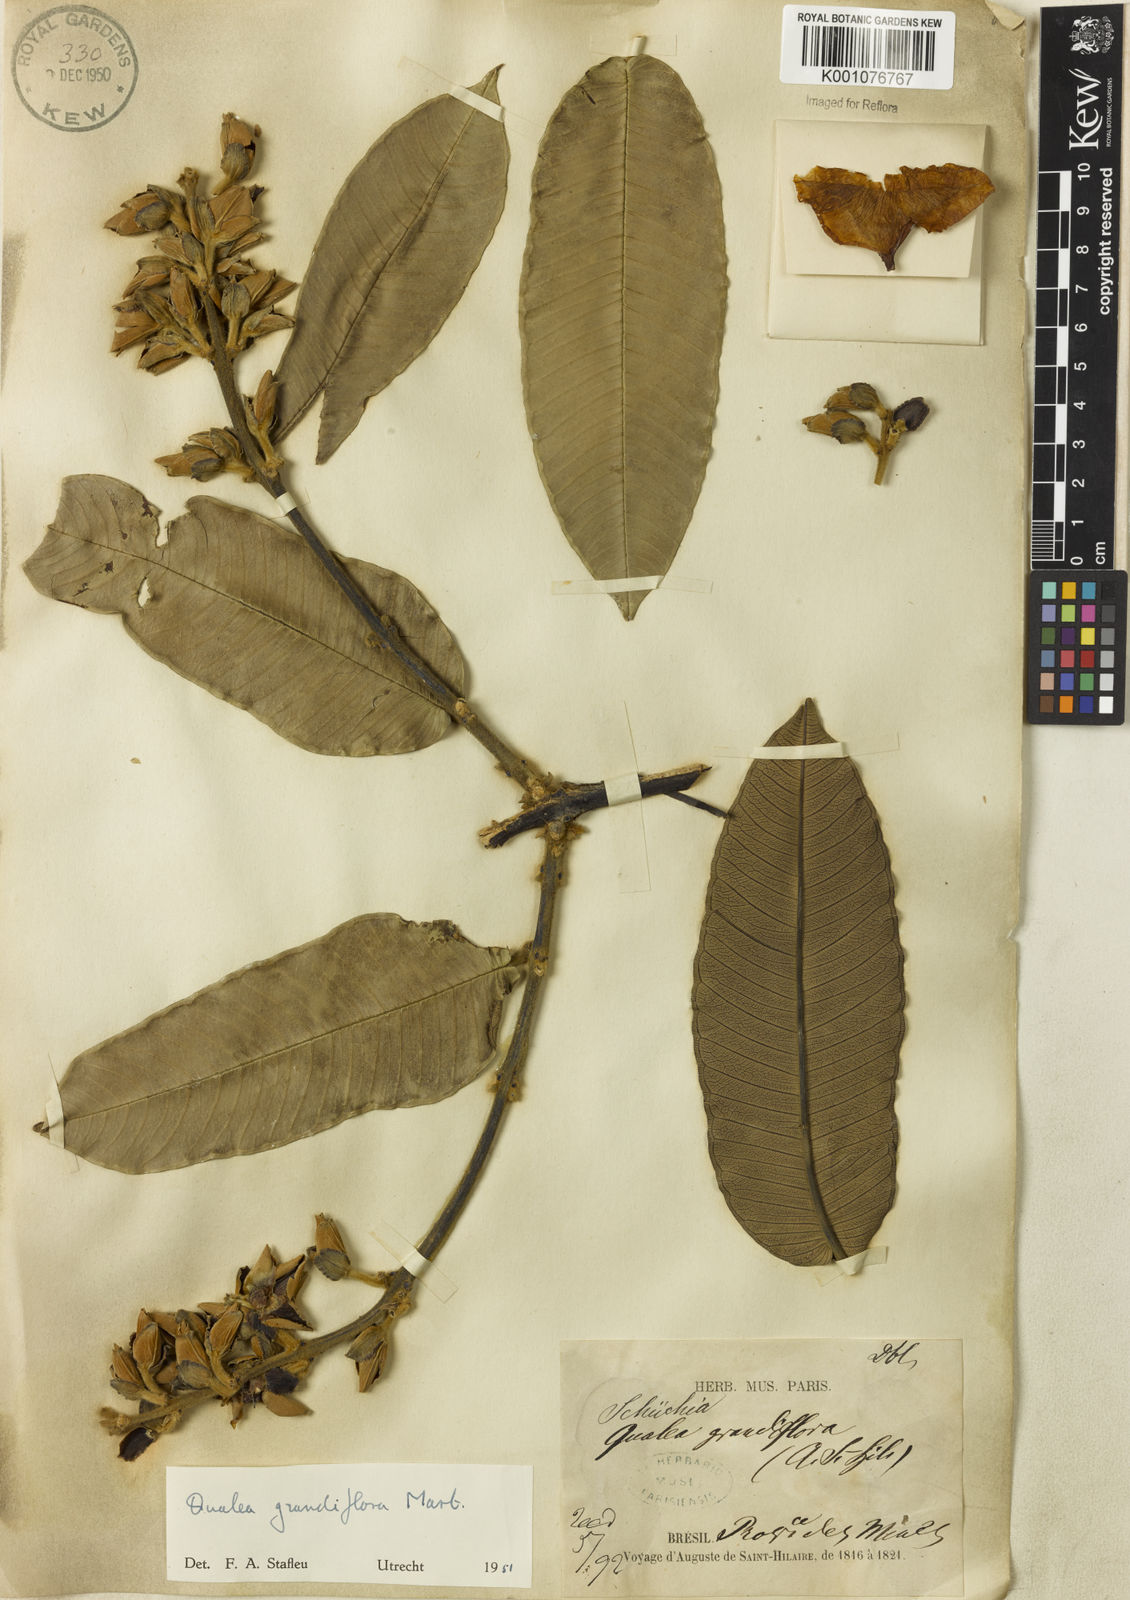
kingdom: Plantae
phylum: Tracheophyta
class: Magnoliopsida
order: Myrtales
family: Vochysiaceae
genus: Qualea
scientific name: Qualea grandiflora
